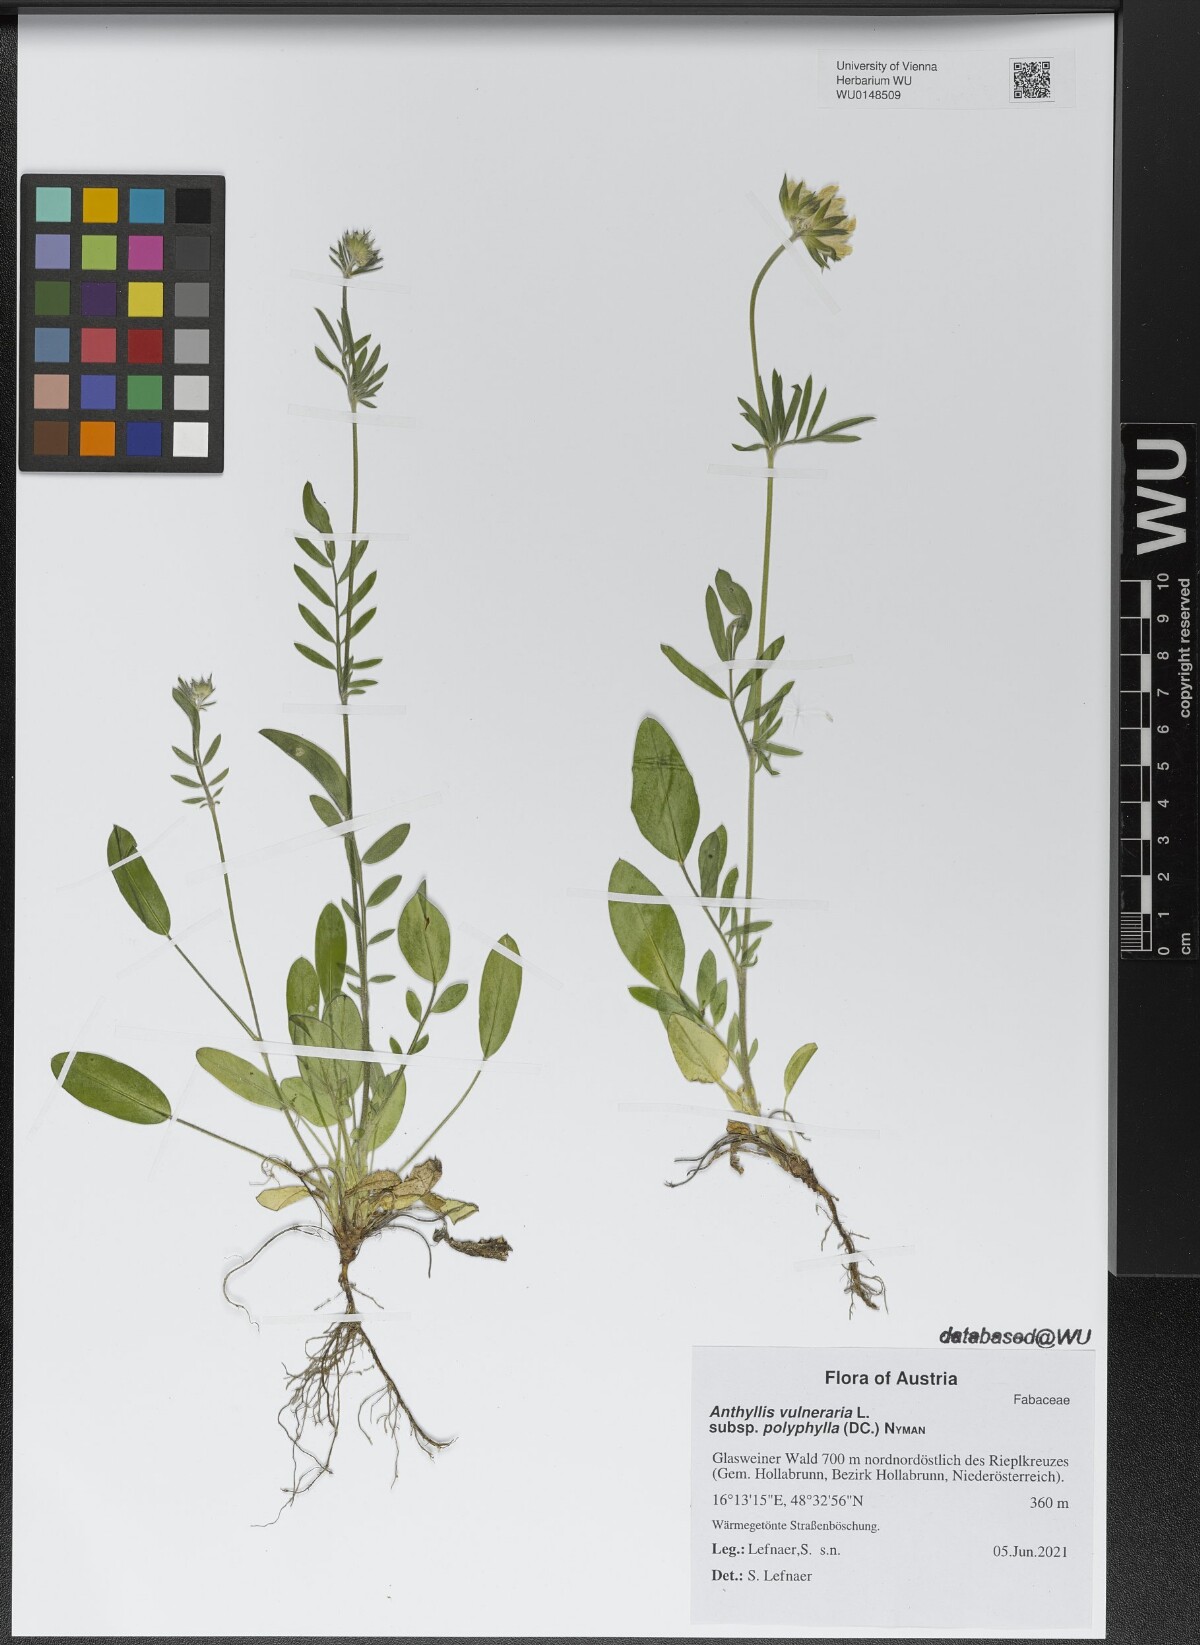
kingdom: Plantae
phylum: Tracheophyta
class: Magnoliopsida
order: Fabales
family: Fabaceae
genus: Anthyllis
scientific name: Anthyllis vulneraria
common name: Kidney vetch
